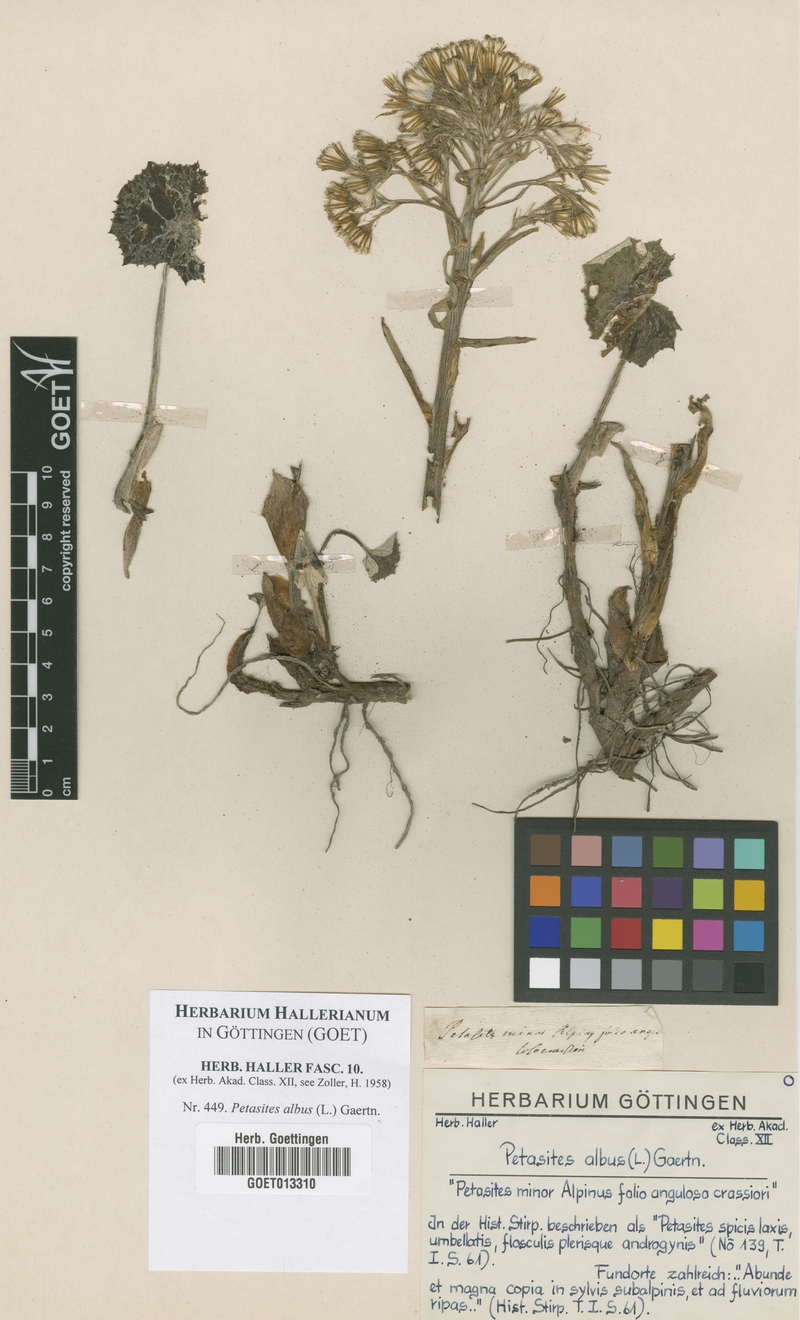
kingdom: Plantae
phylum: Tracheophyta
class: Magnoliopsida
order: Asterales
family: Asteraceae
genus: Petasites
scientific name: Petasites albus
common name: White butterbur
